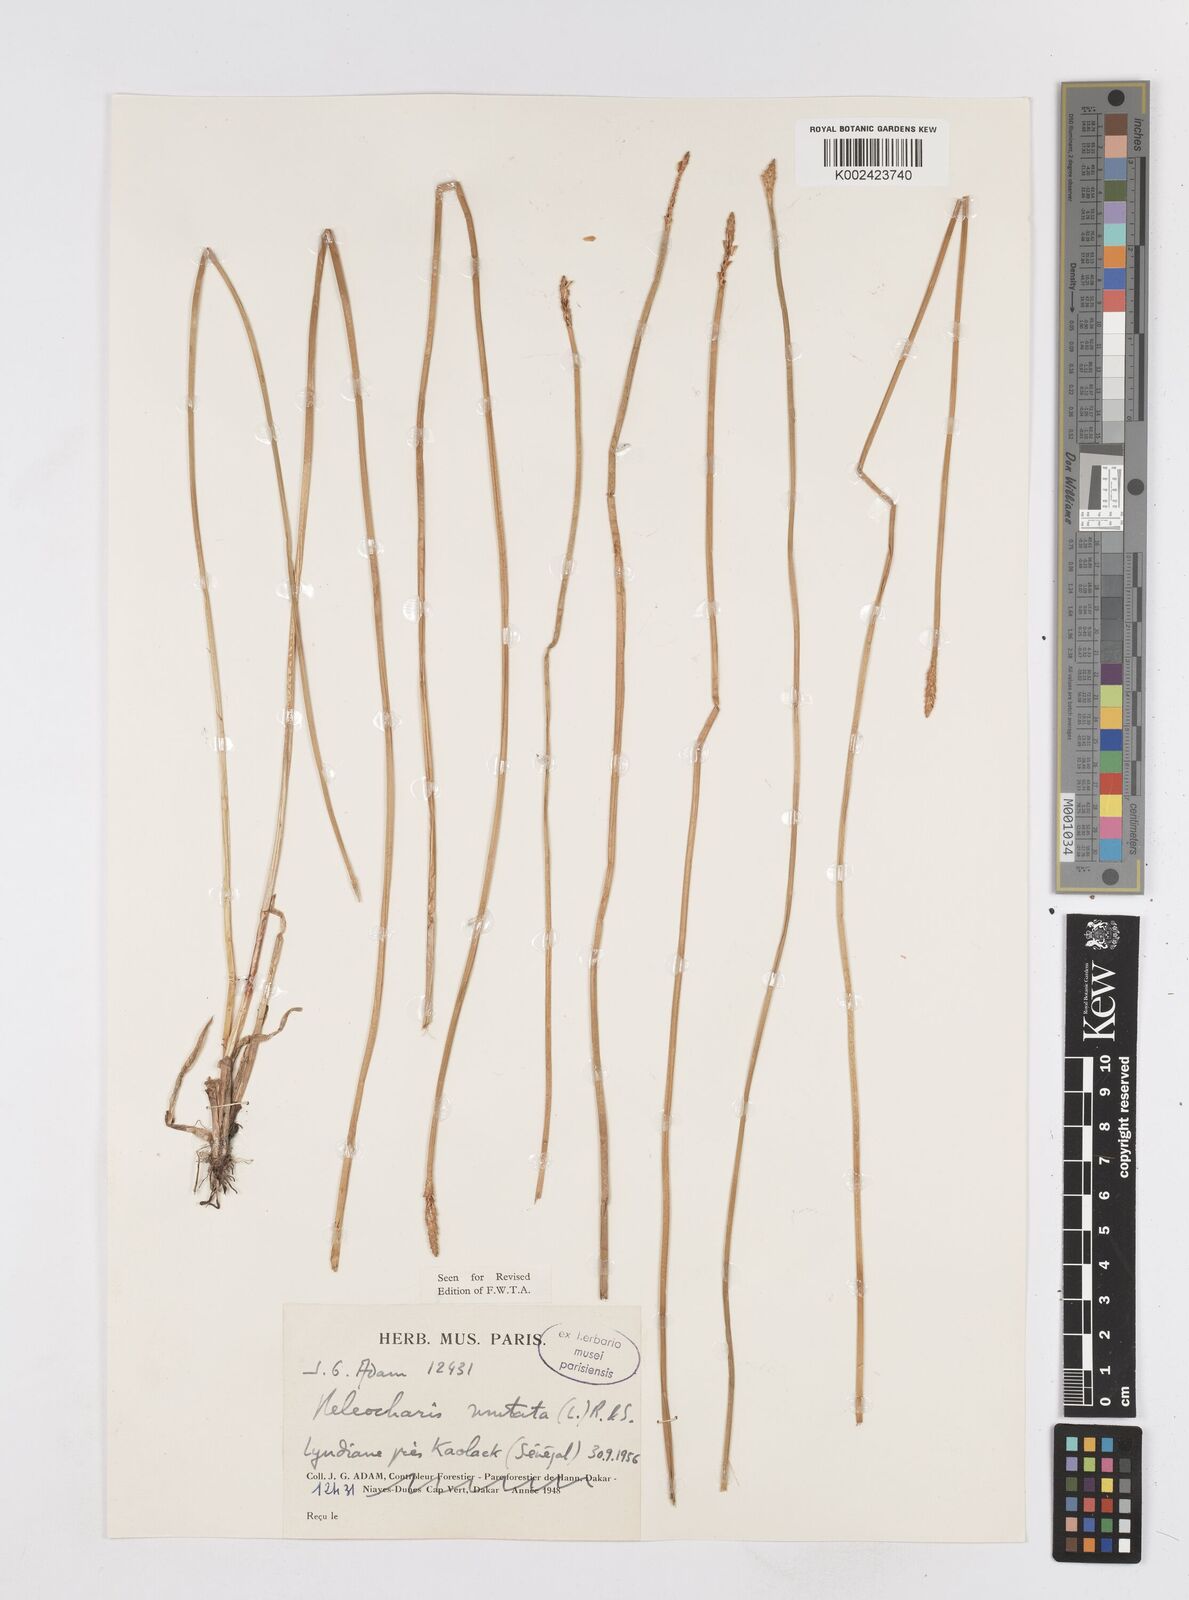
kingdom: Plantae
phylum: Tracheophyta
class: Liliopsida
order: Poales
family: Cyperaceae
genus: Eleocharis
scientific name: Eleocharis mutata
